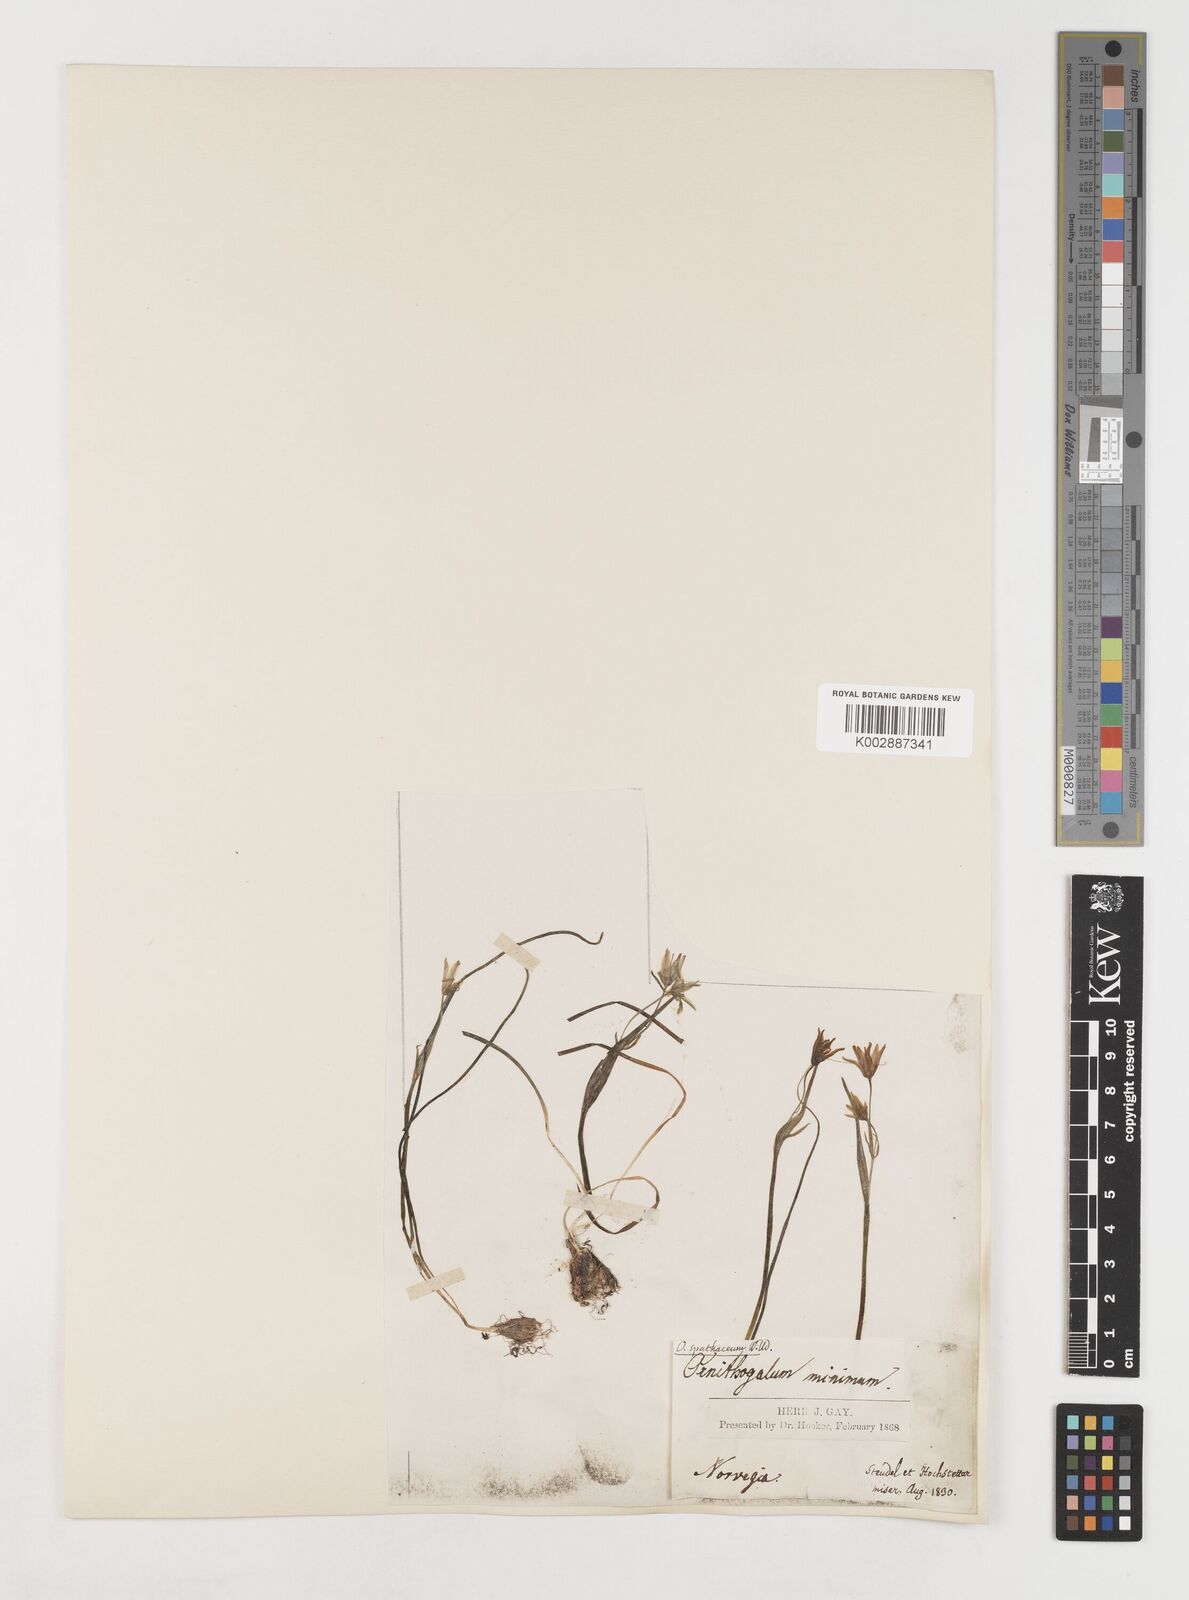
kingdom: Plantae
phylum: Tracheophyta
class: Liliopsida
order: Liliales
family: Liliaceae
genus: Gagea
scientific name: Gagea spathacea
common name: Belgian gagea
